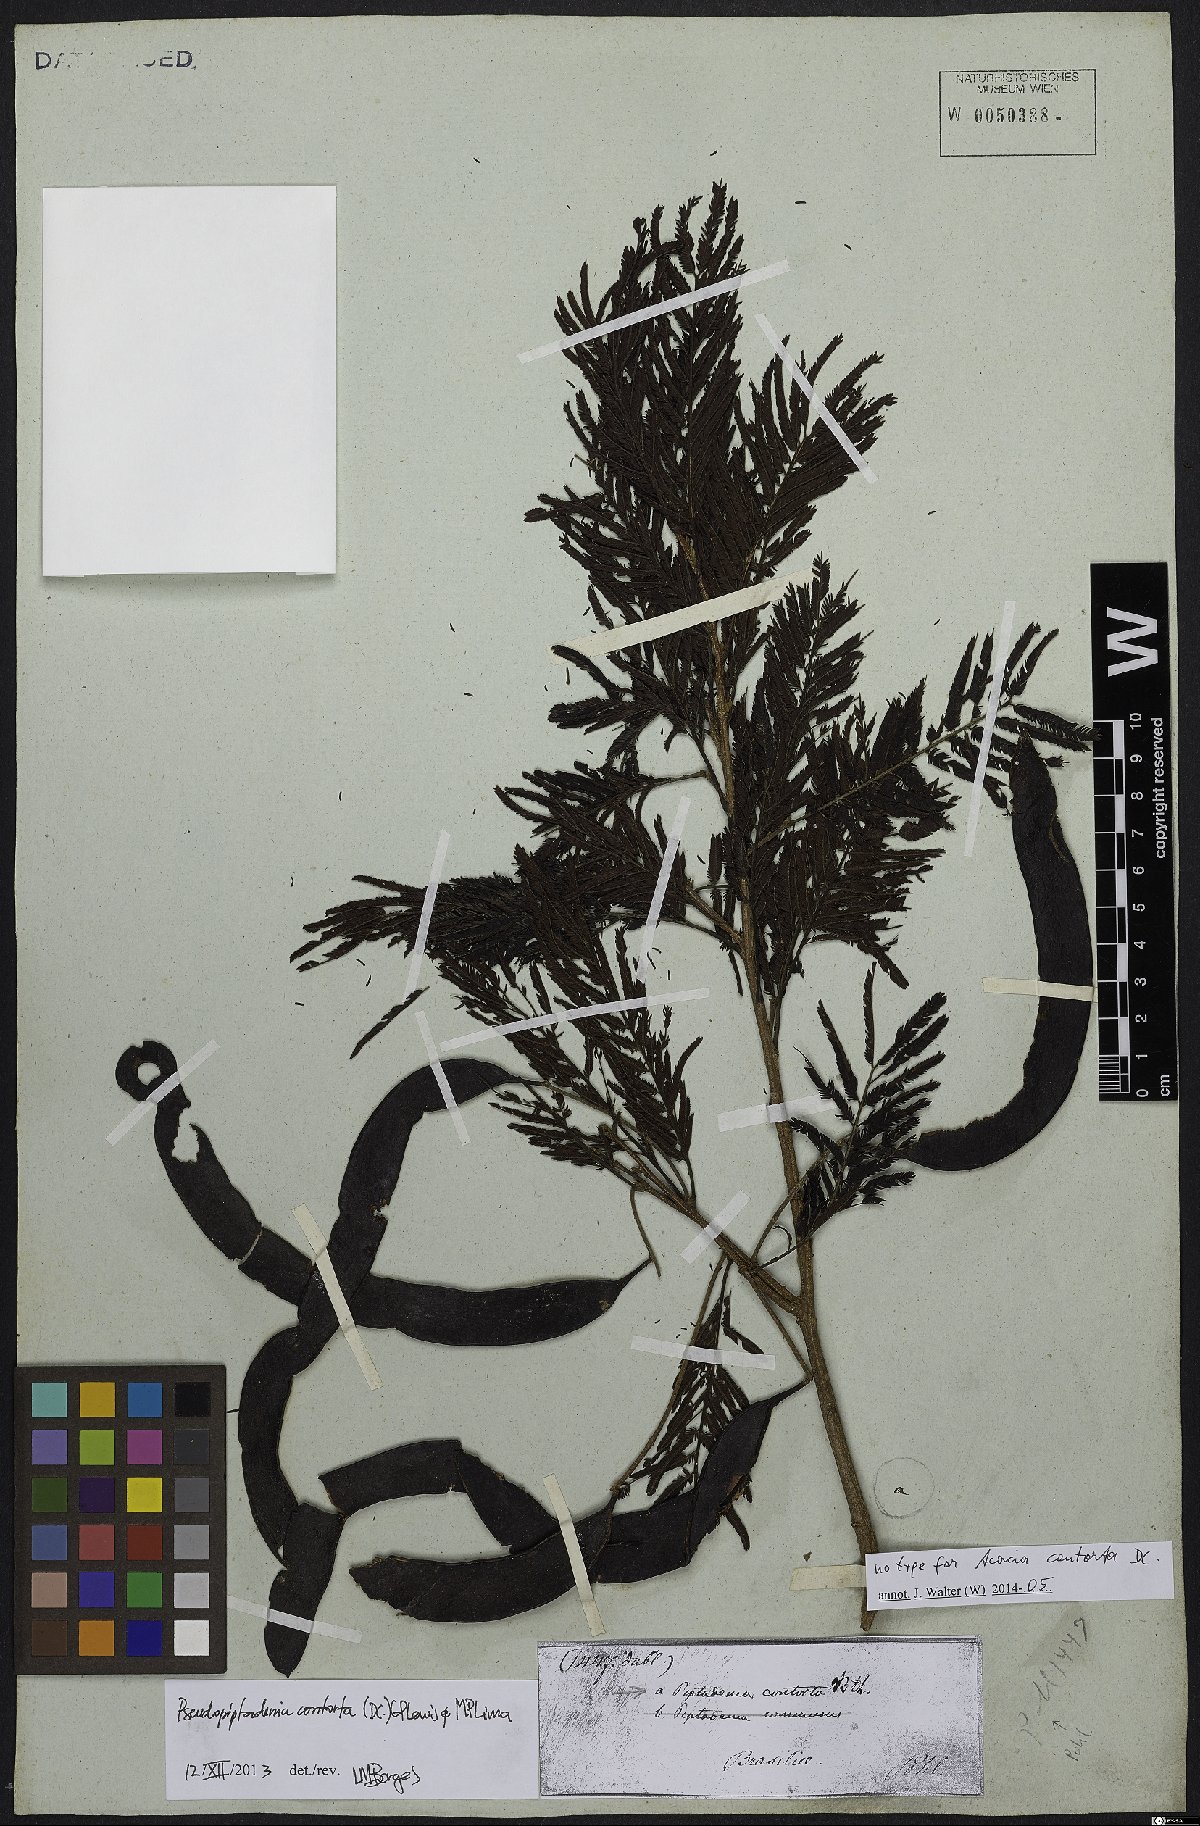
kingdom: Plantae
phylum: Tracheophyta
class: Magnoliopsida
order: Fabales
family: Fabaceae
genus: Pseudopiptadenia
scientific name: Pseudopiptadenia contorta
